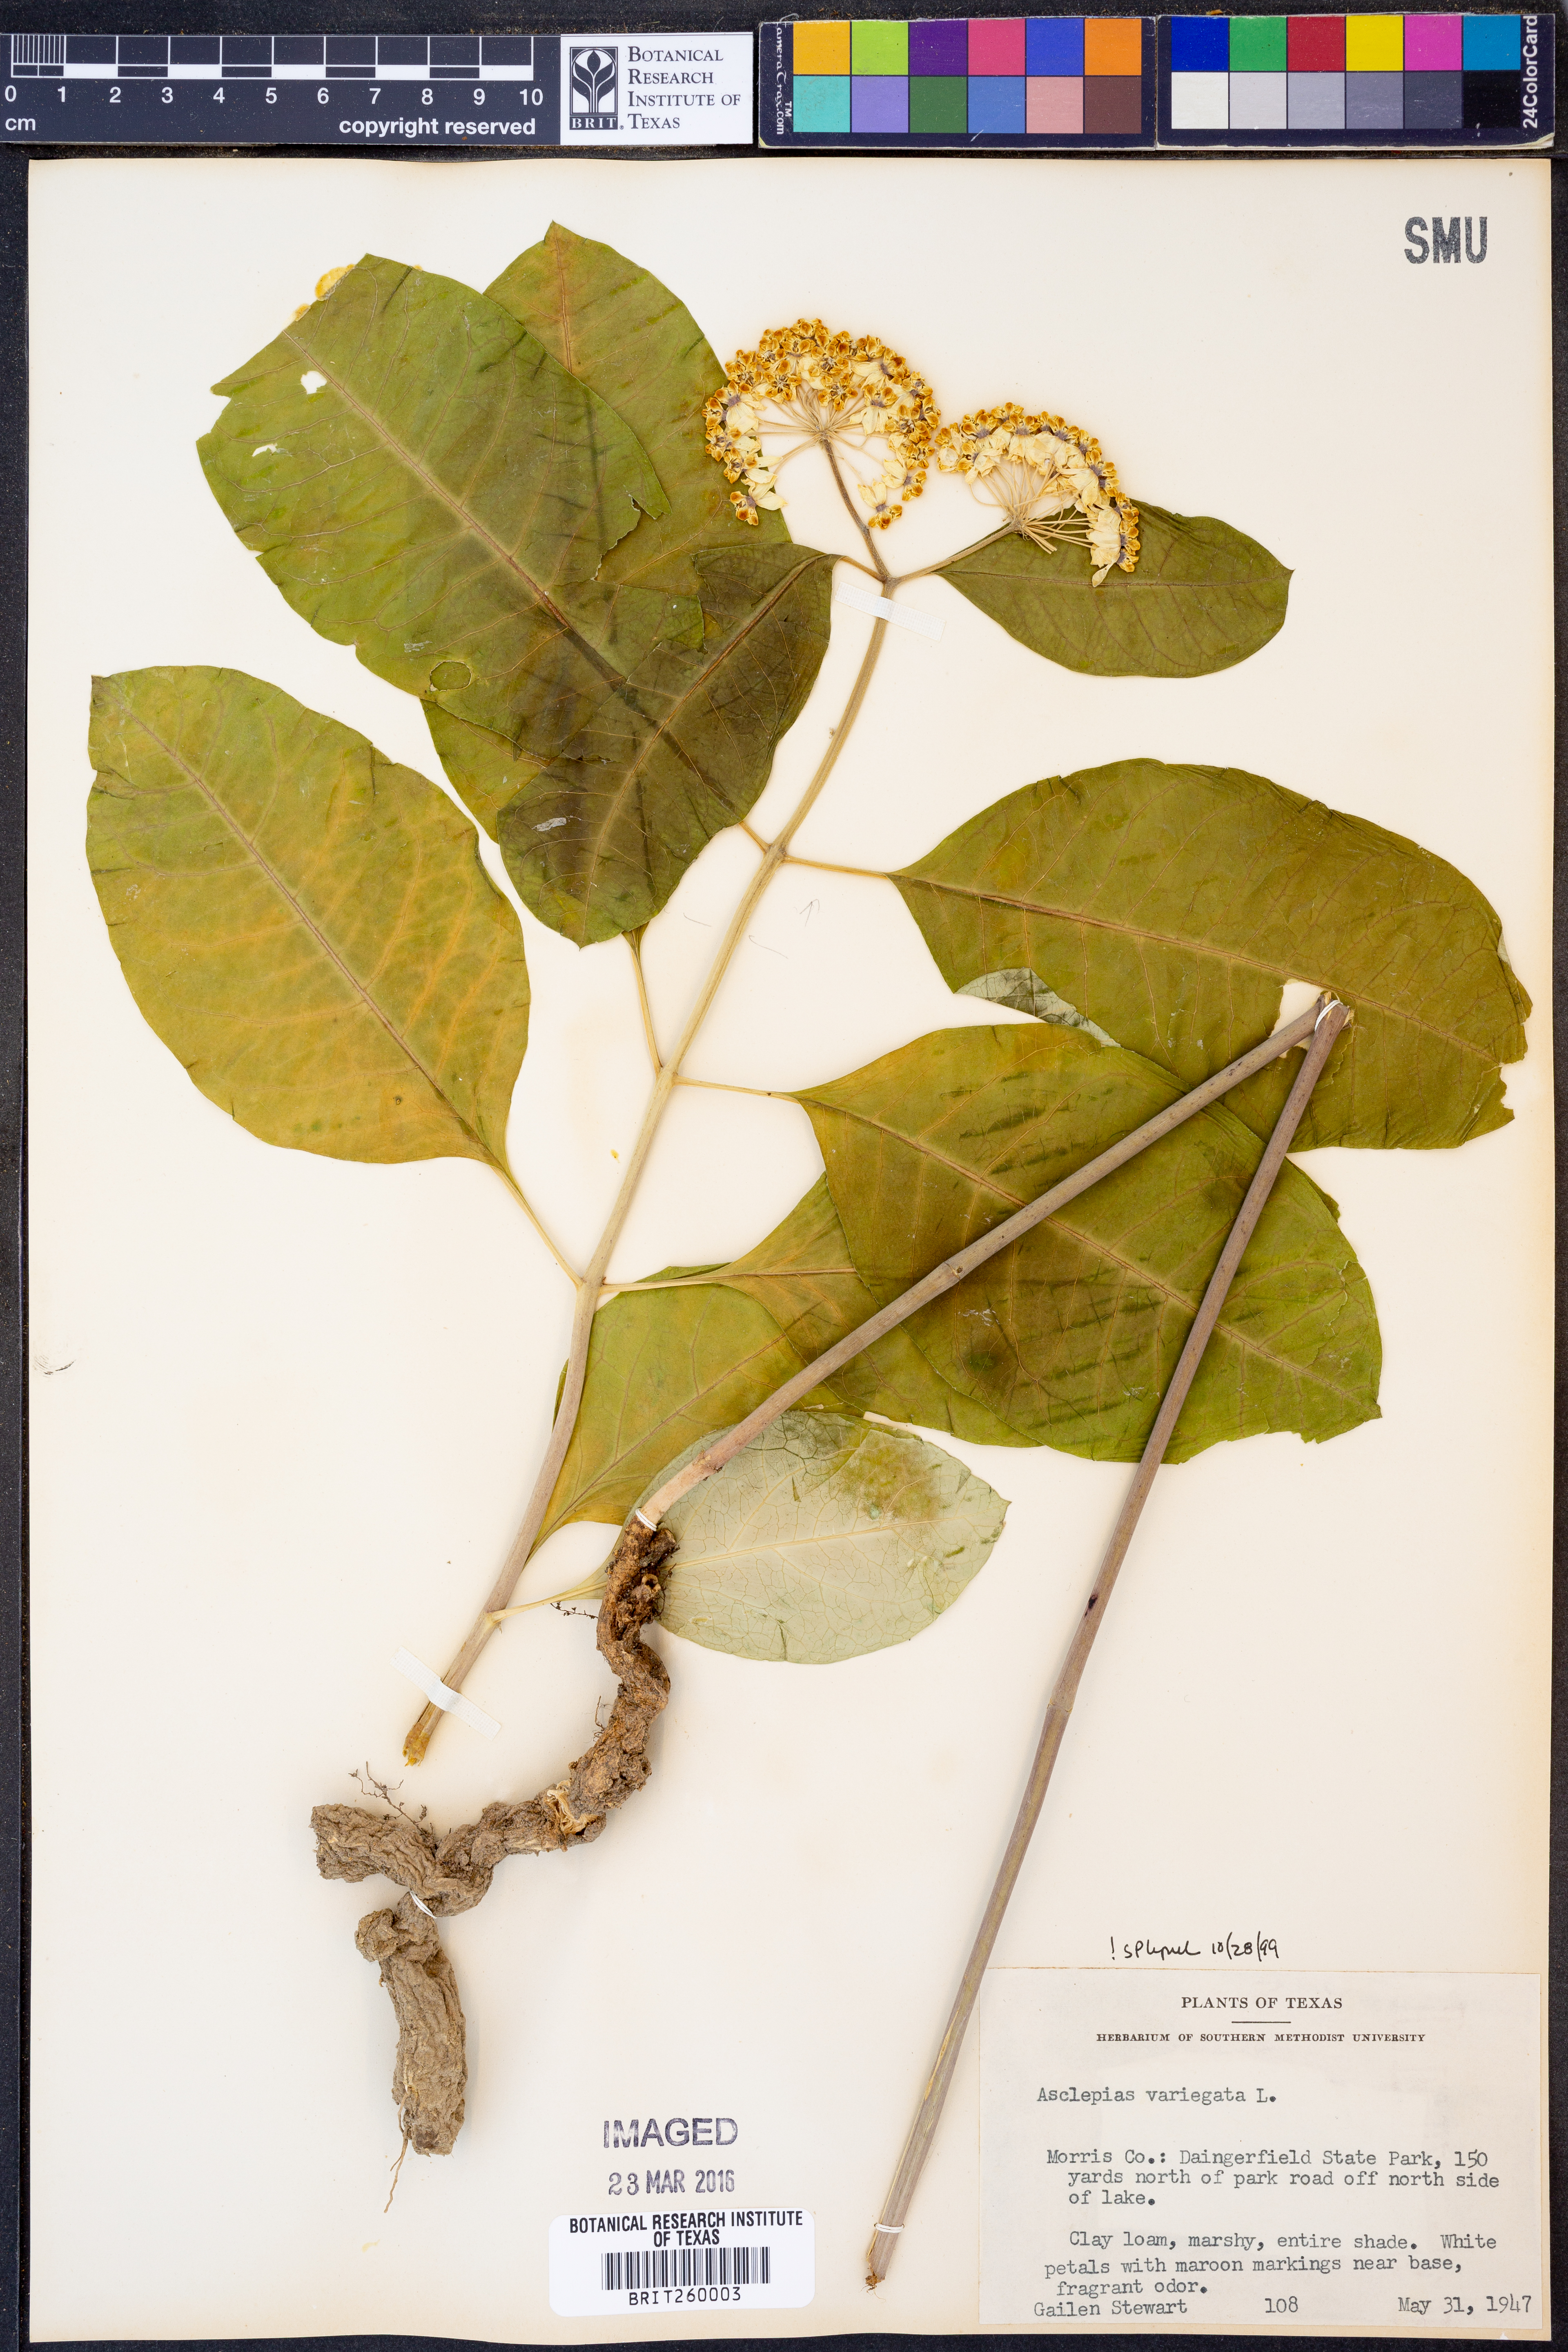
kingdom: Plantae
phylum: Tracheophyta
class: Magnoliopsida
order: Gentianales
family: Apocynaceae
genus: Asclepias
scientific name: Asclepias variegata
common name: Variegated milkweed
